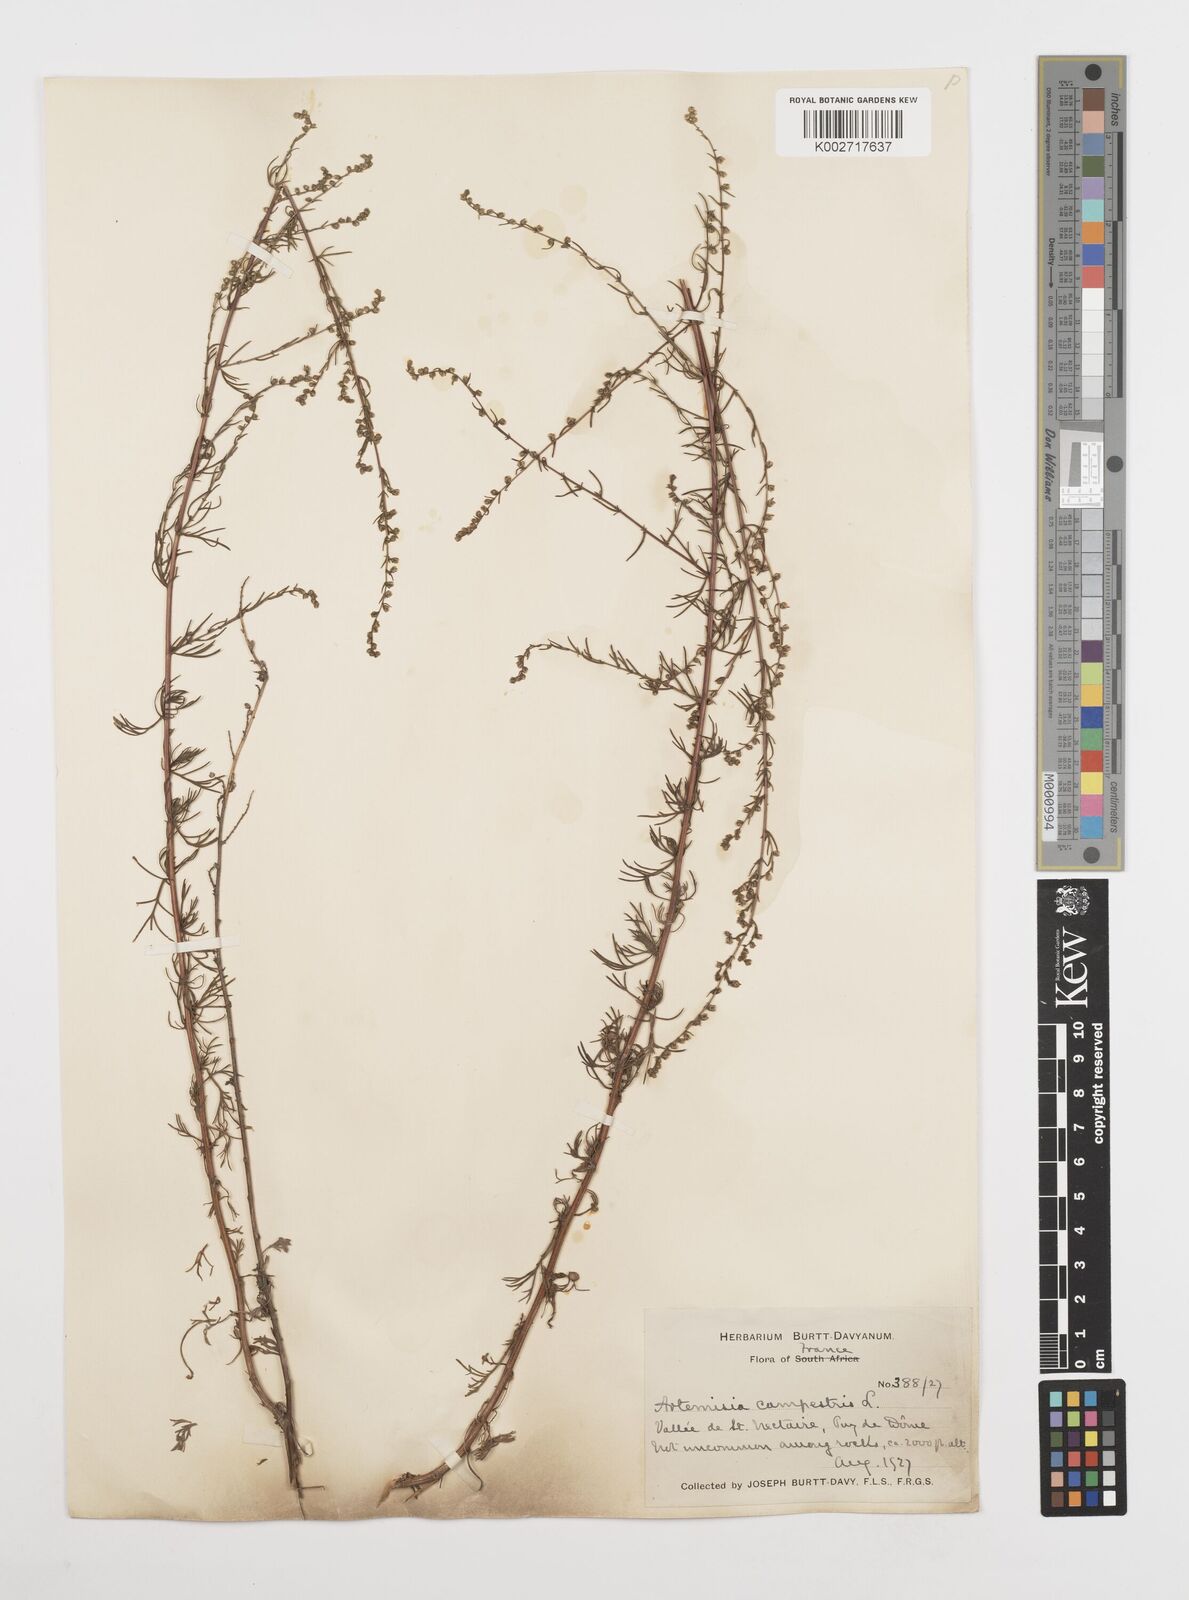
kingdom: Plantae
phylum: Tracheophyta
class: Magnoliopsida
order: Asterales
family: Asteraceae
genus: Artemisia
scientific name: Artemisia campestris
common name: Field wormwood
